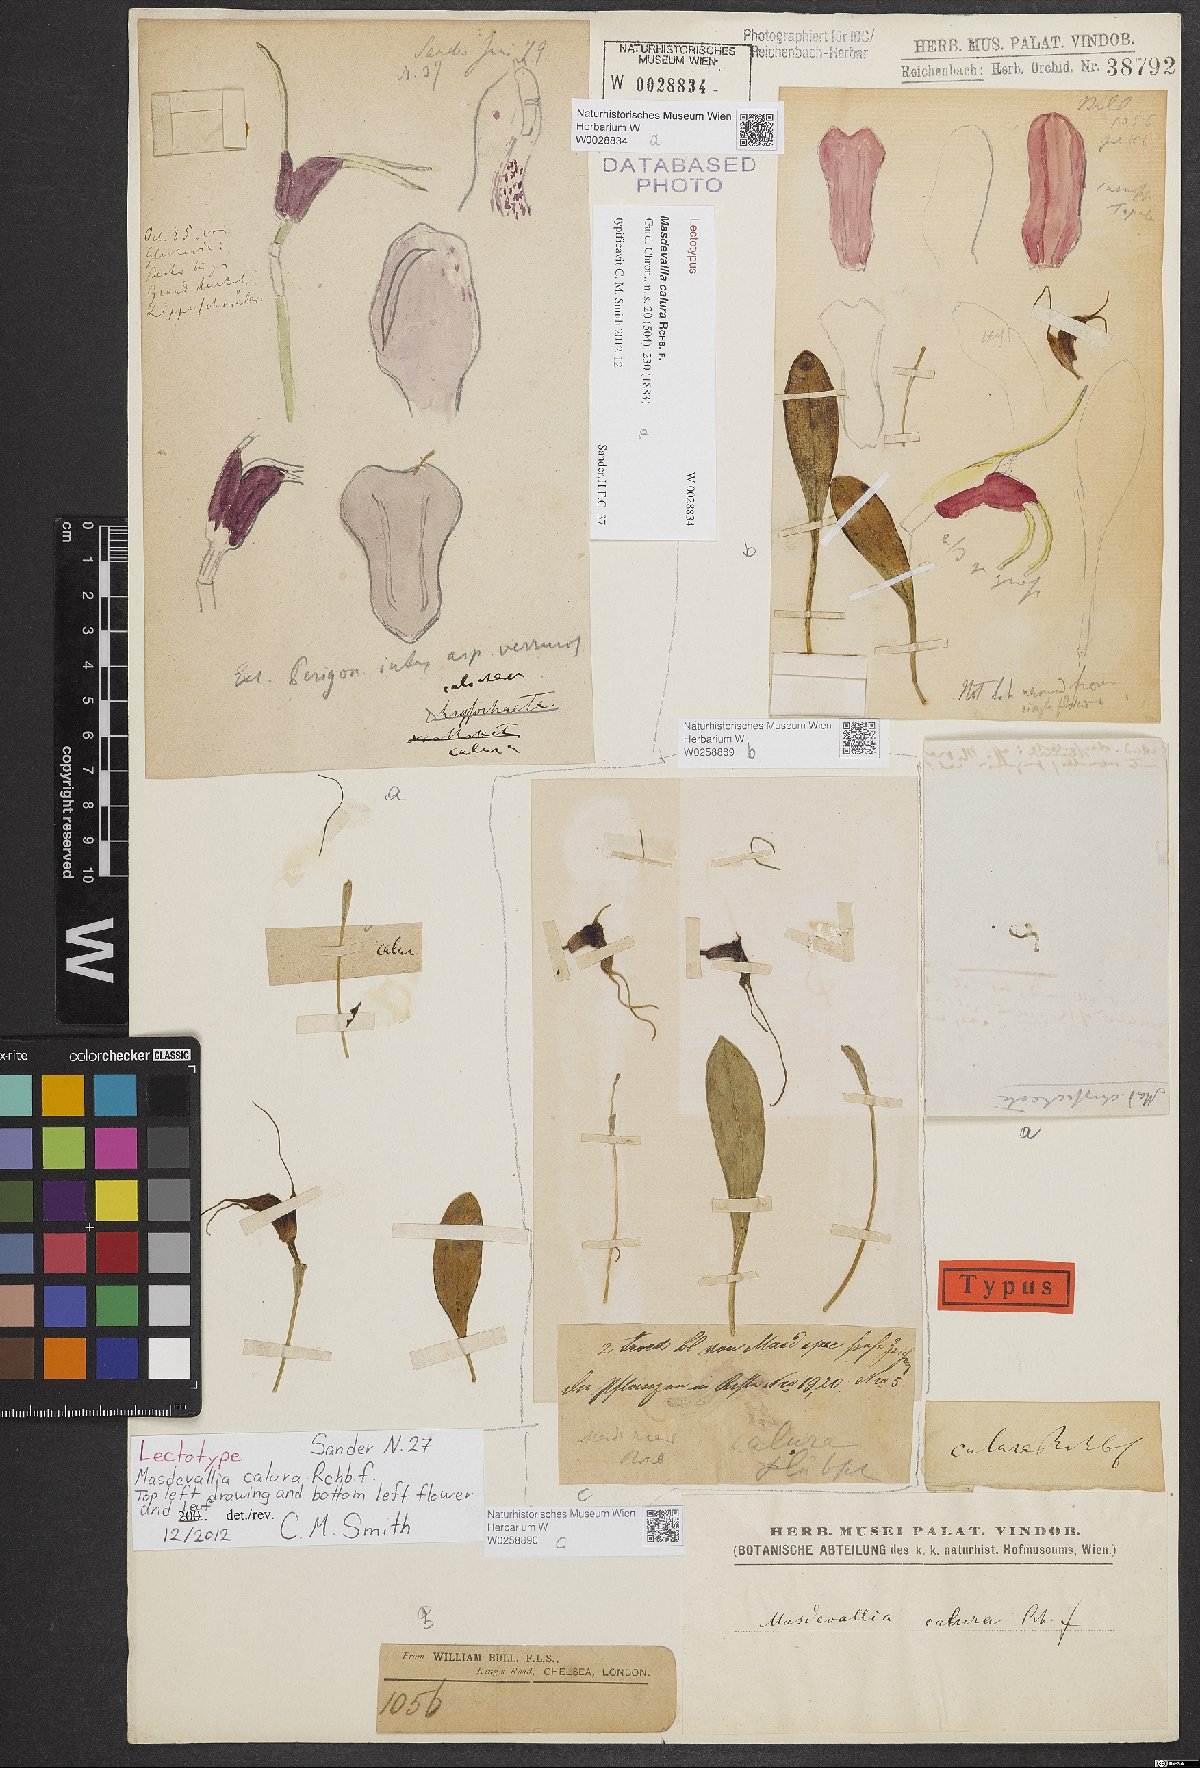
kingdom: Plantae
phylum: Tracheophyta
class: Liliopsida
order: Asparagales
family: Orchidaceae
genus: Masdevallia
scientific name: Masdevallia calura
